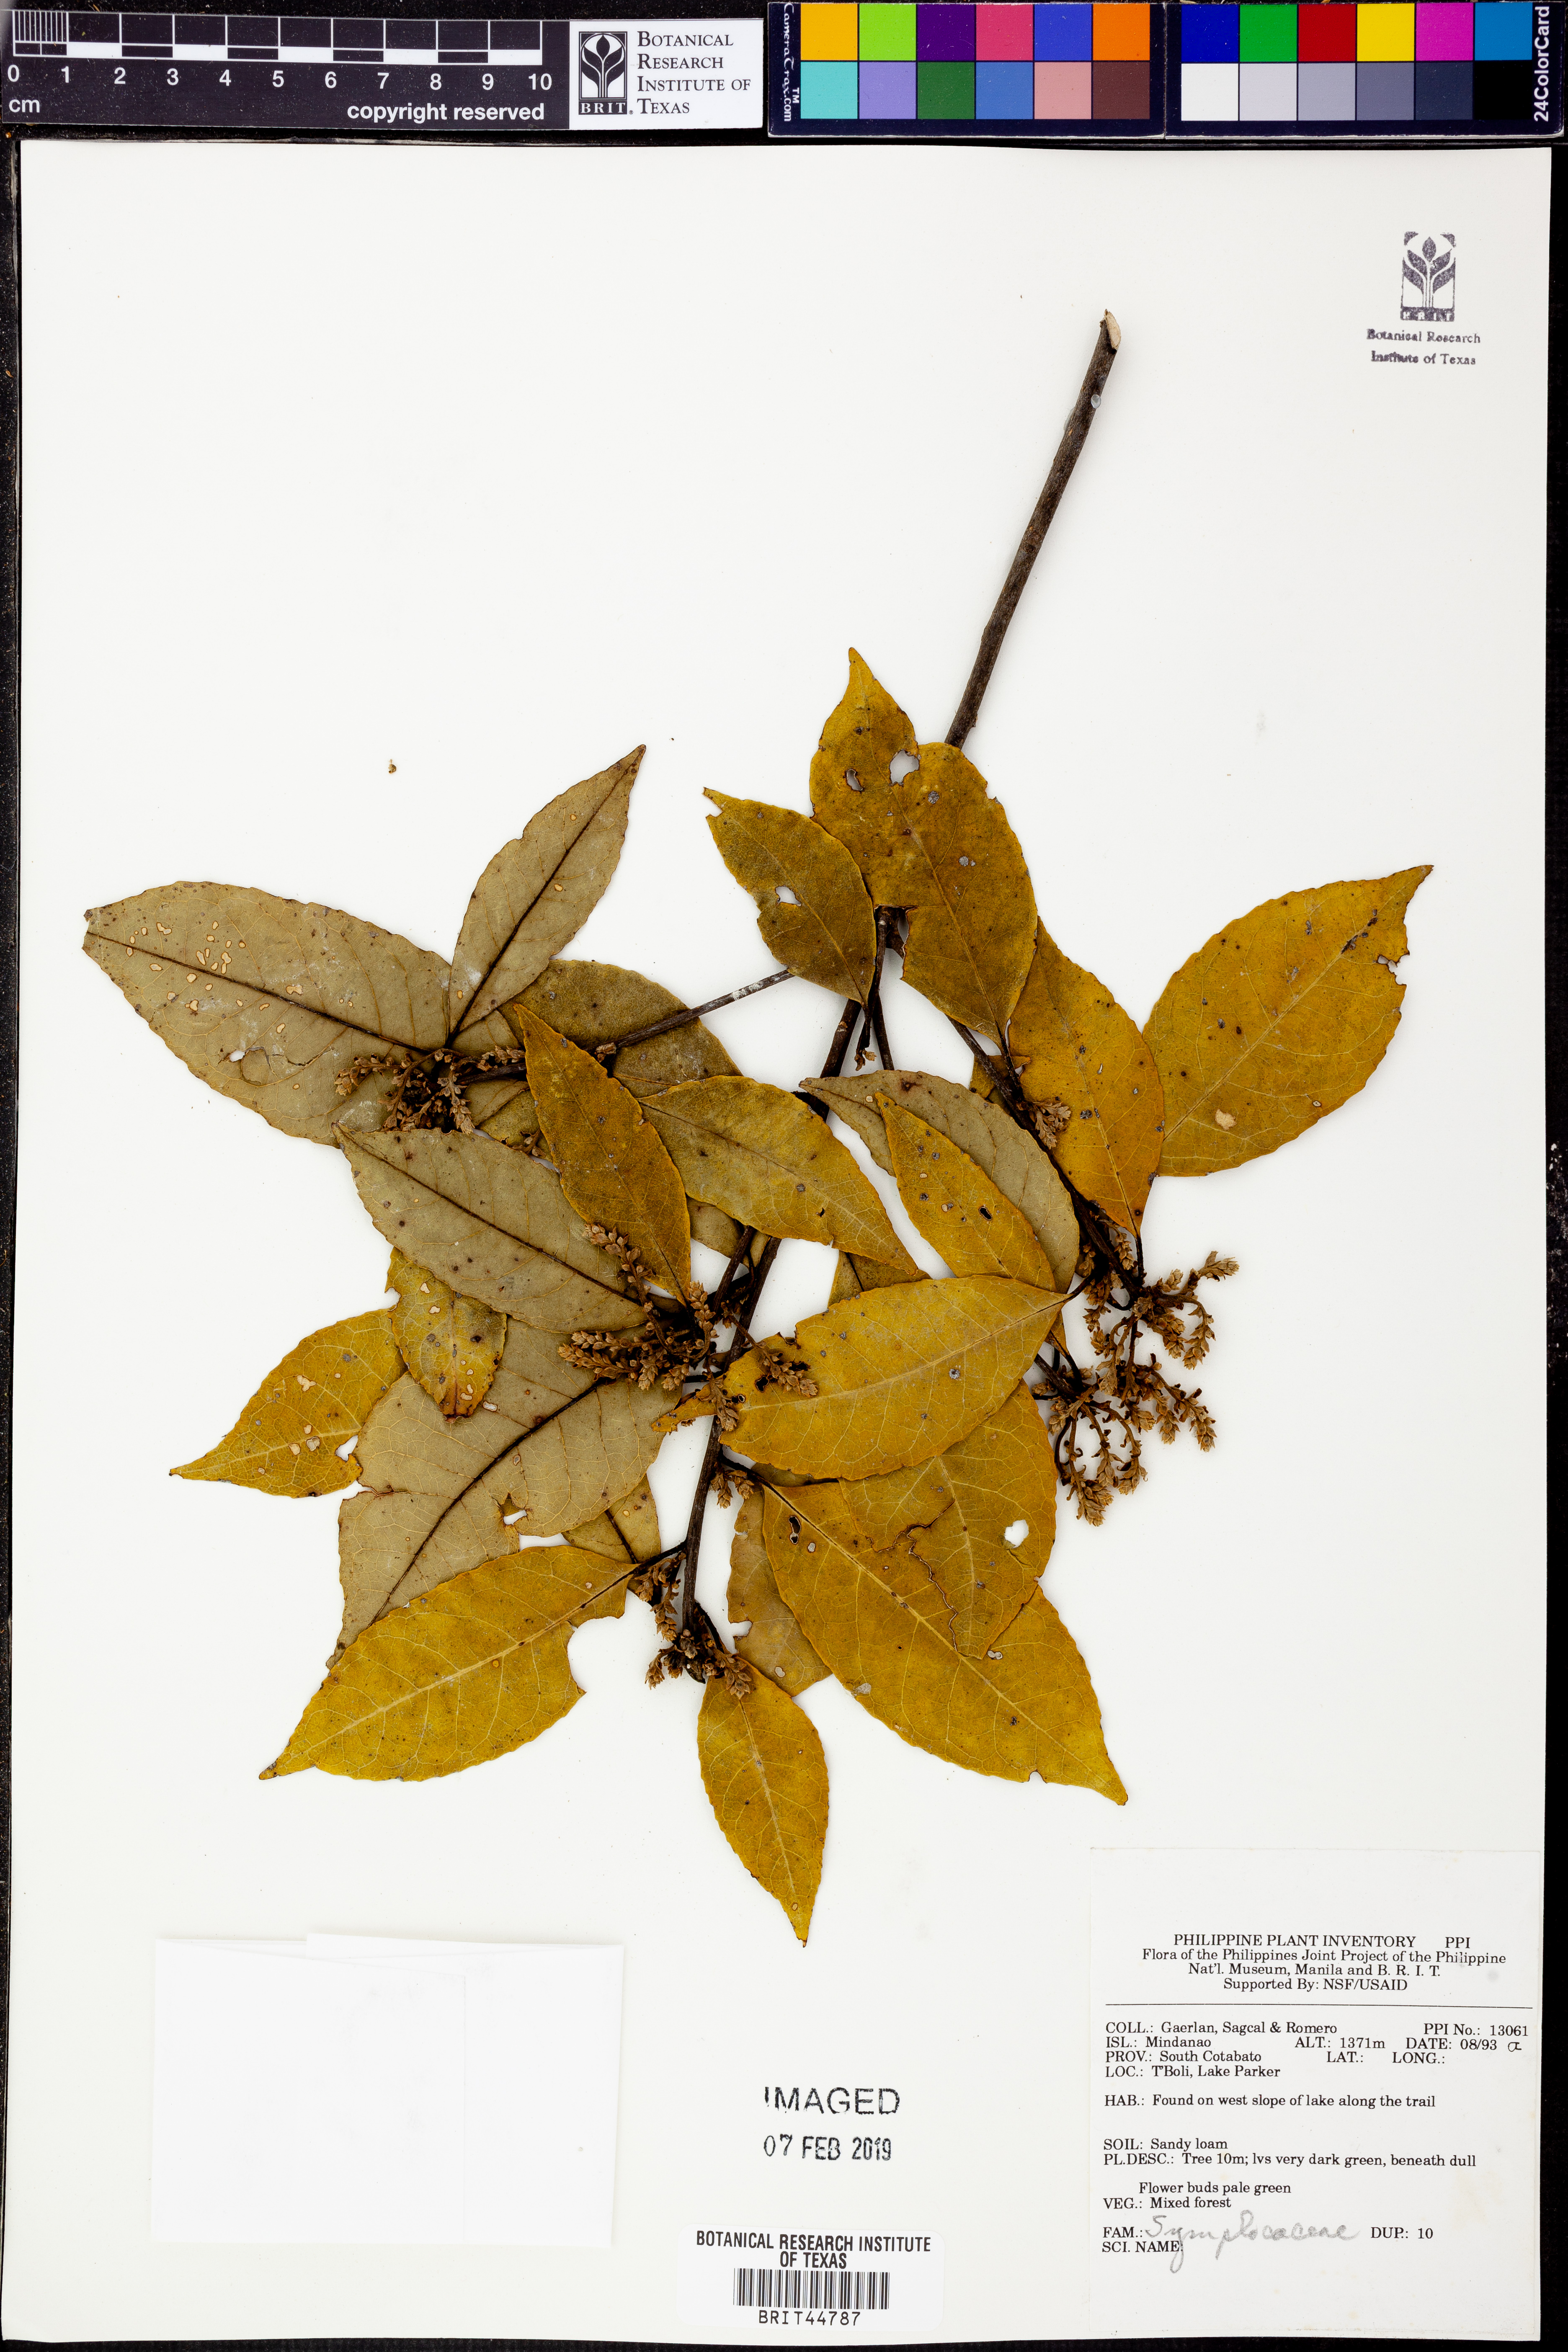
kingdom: Plantae
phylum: Tracheophyta
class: Magnoliopsida
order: Ericales
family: Symplocaceae
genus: Symplocos
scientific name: Symplocos cochinchinensis
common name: Buff hazelwood
